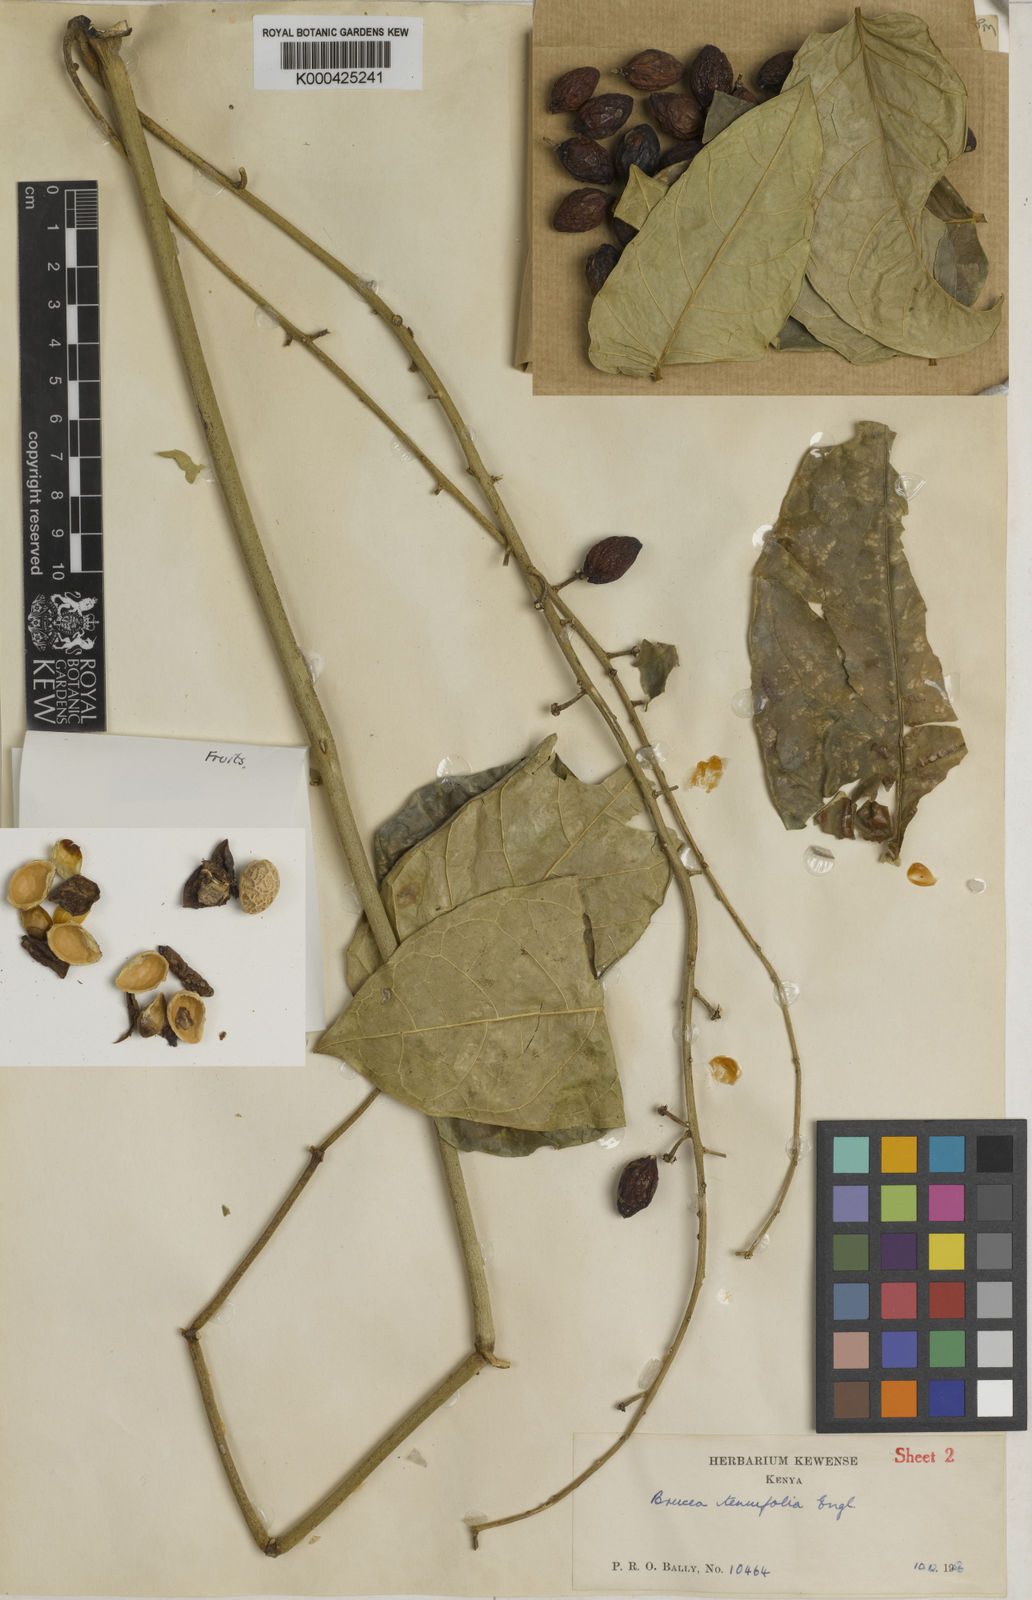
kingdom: Plantae
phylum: Tracheophyta
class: Magnoliopsida
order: Sapindales
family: Simaroubaceae
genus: Brucea
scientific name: Brucea macrocarpa
